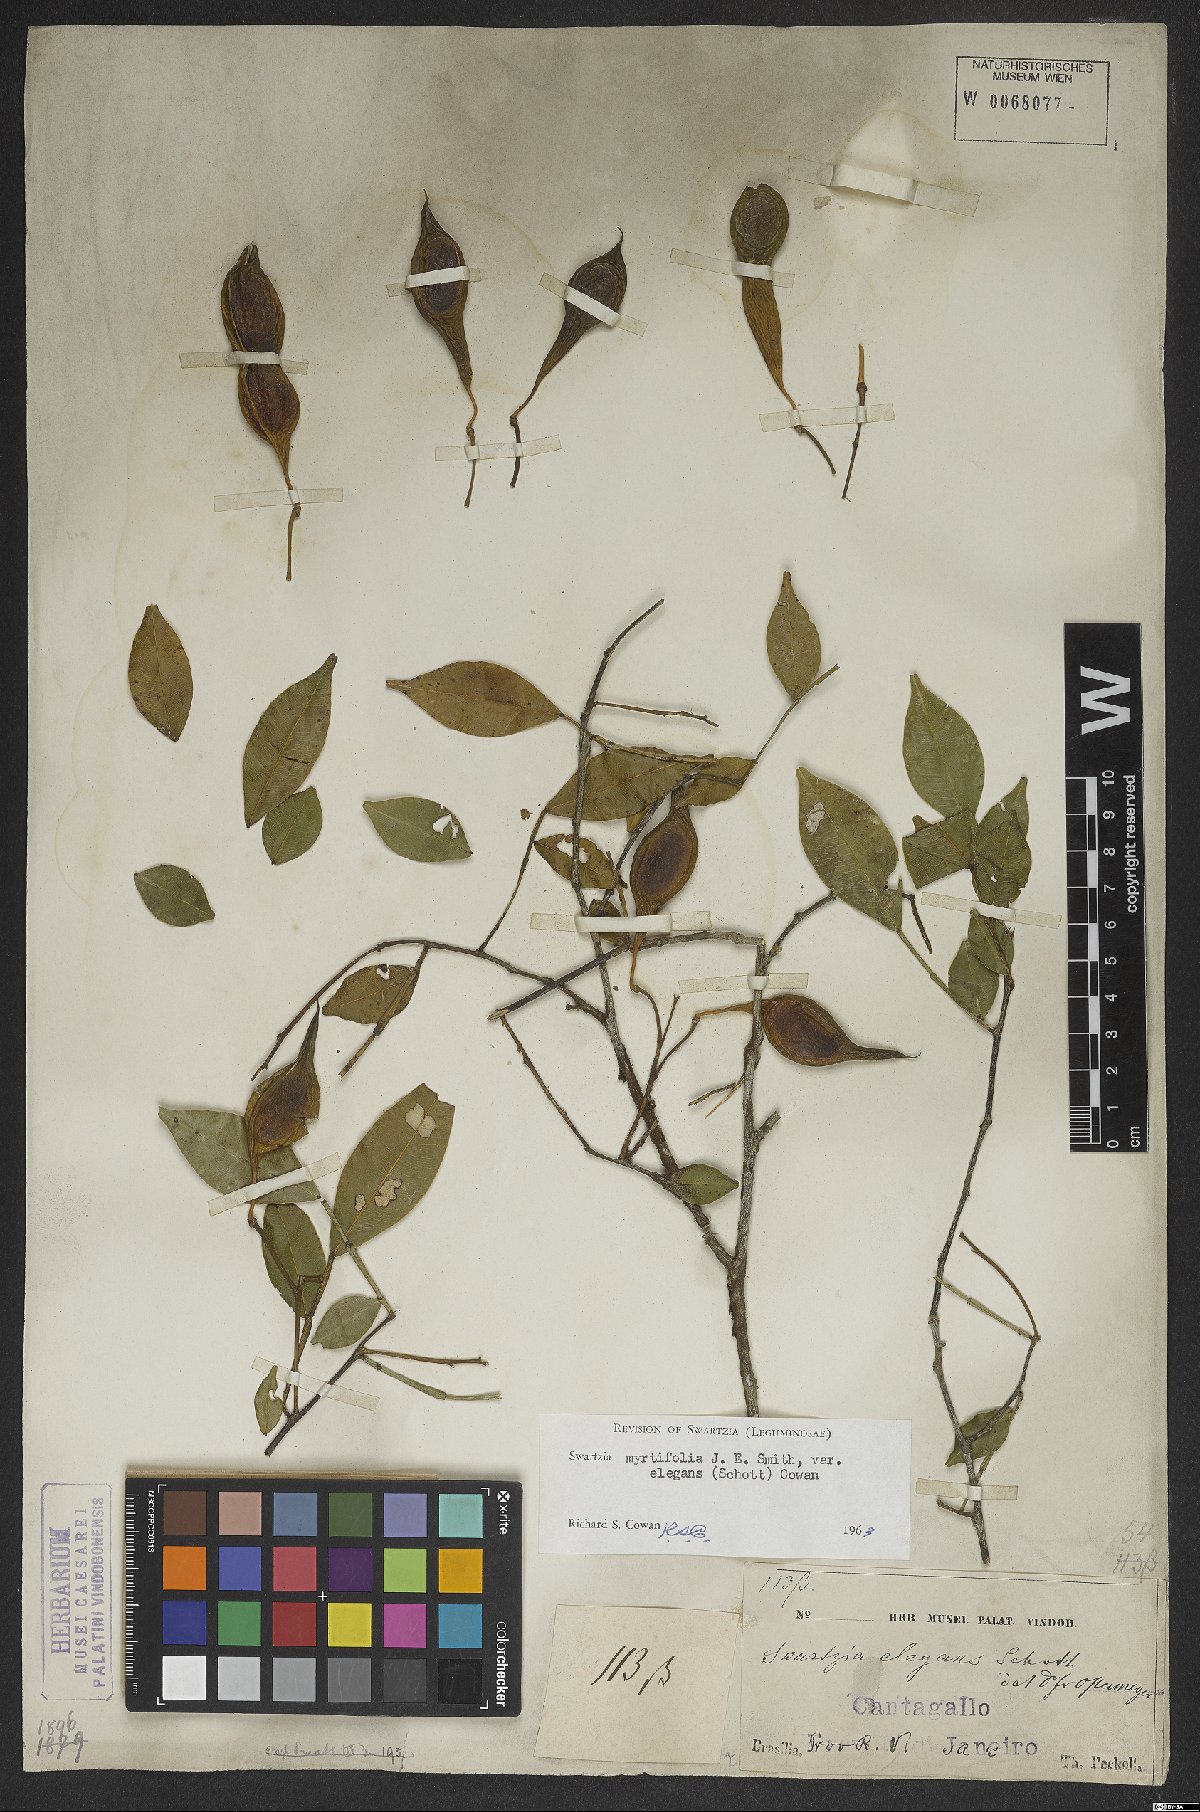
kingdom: Plantae
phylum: Tracheophyta
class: Magnoliopsida
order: Fabales
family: Fabaceae
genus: Swartzia
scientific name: Swartzia myrtifolia
